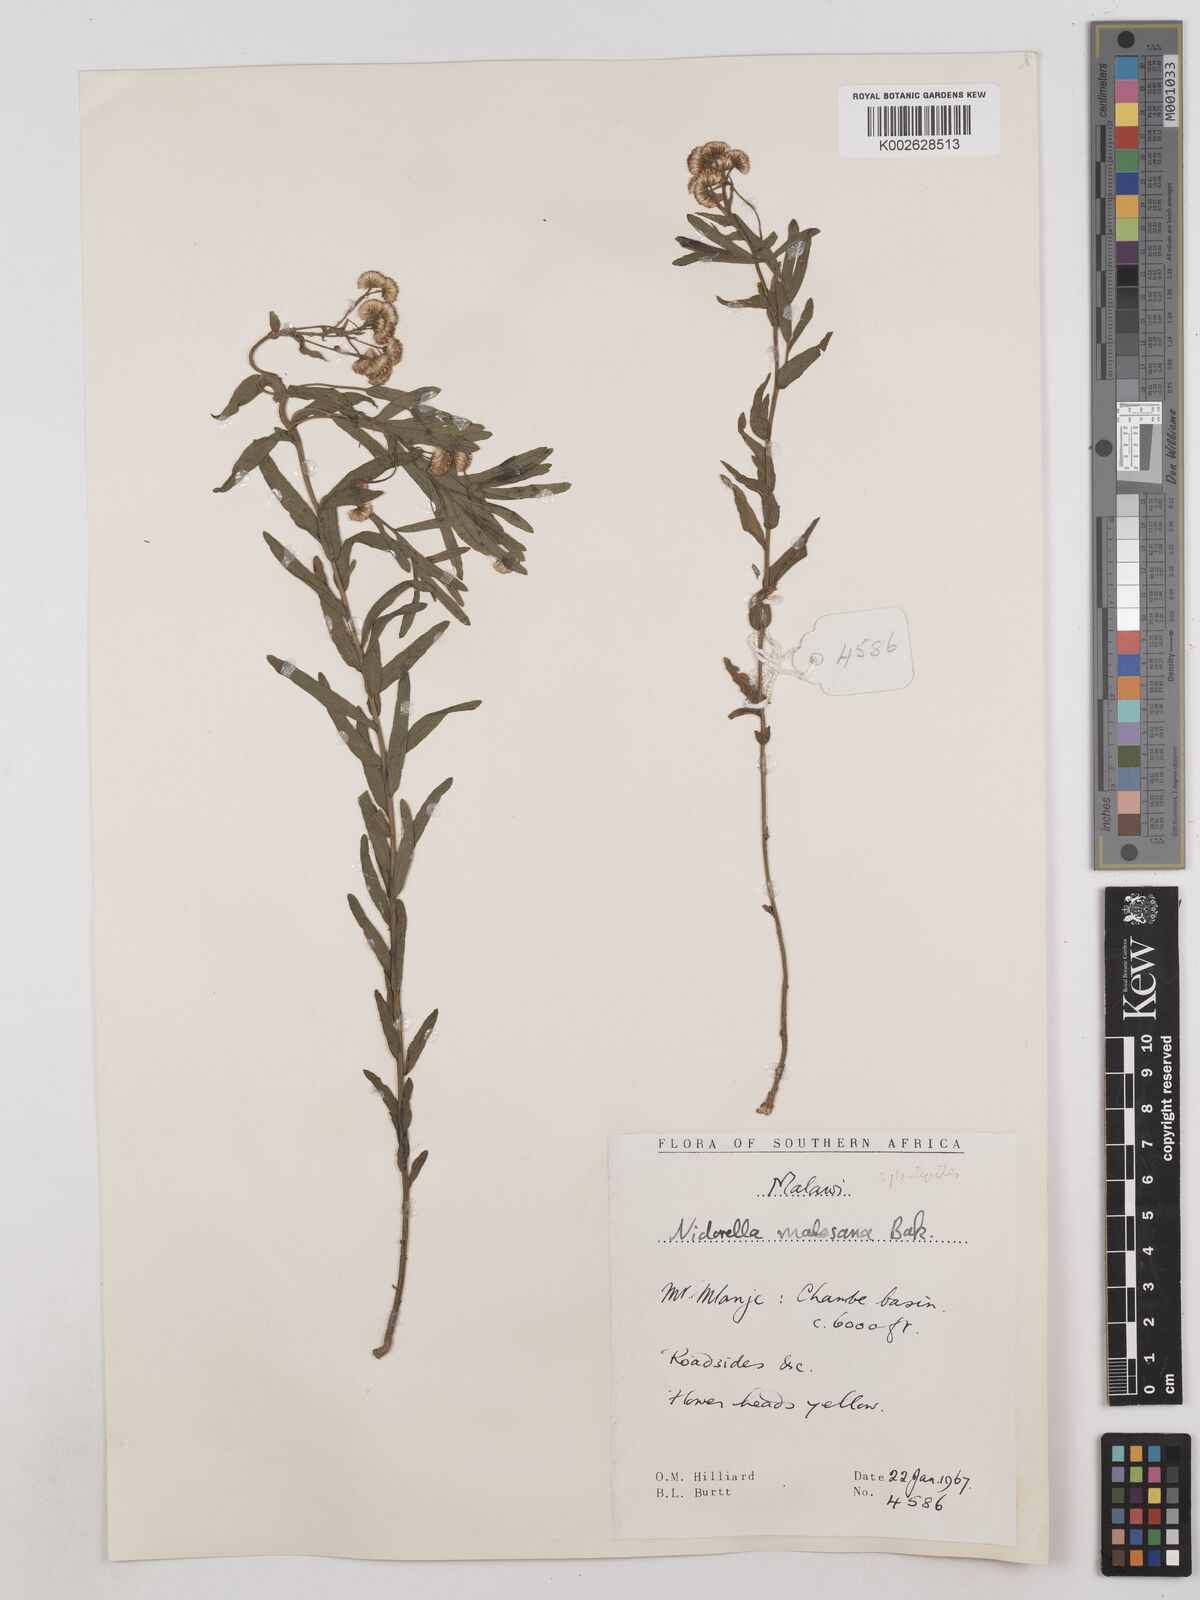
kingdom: Plantae
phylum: Tracheophyta
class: Magnoliopsida
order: Asterales
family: Asteraceae
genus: Nidorella
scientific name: Nidorella spartioides
